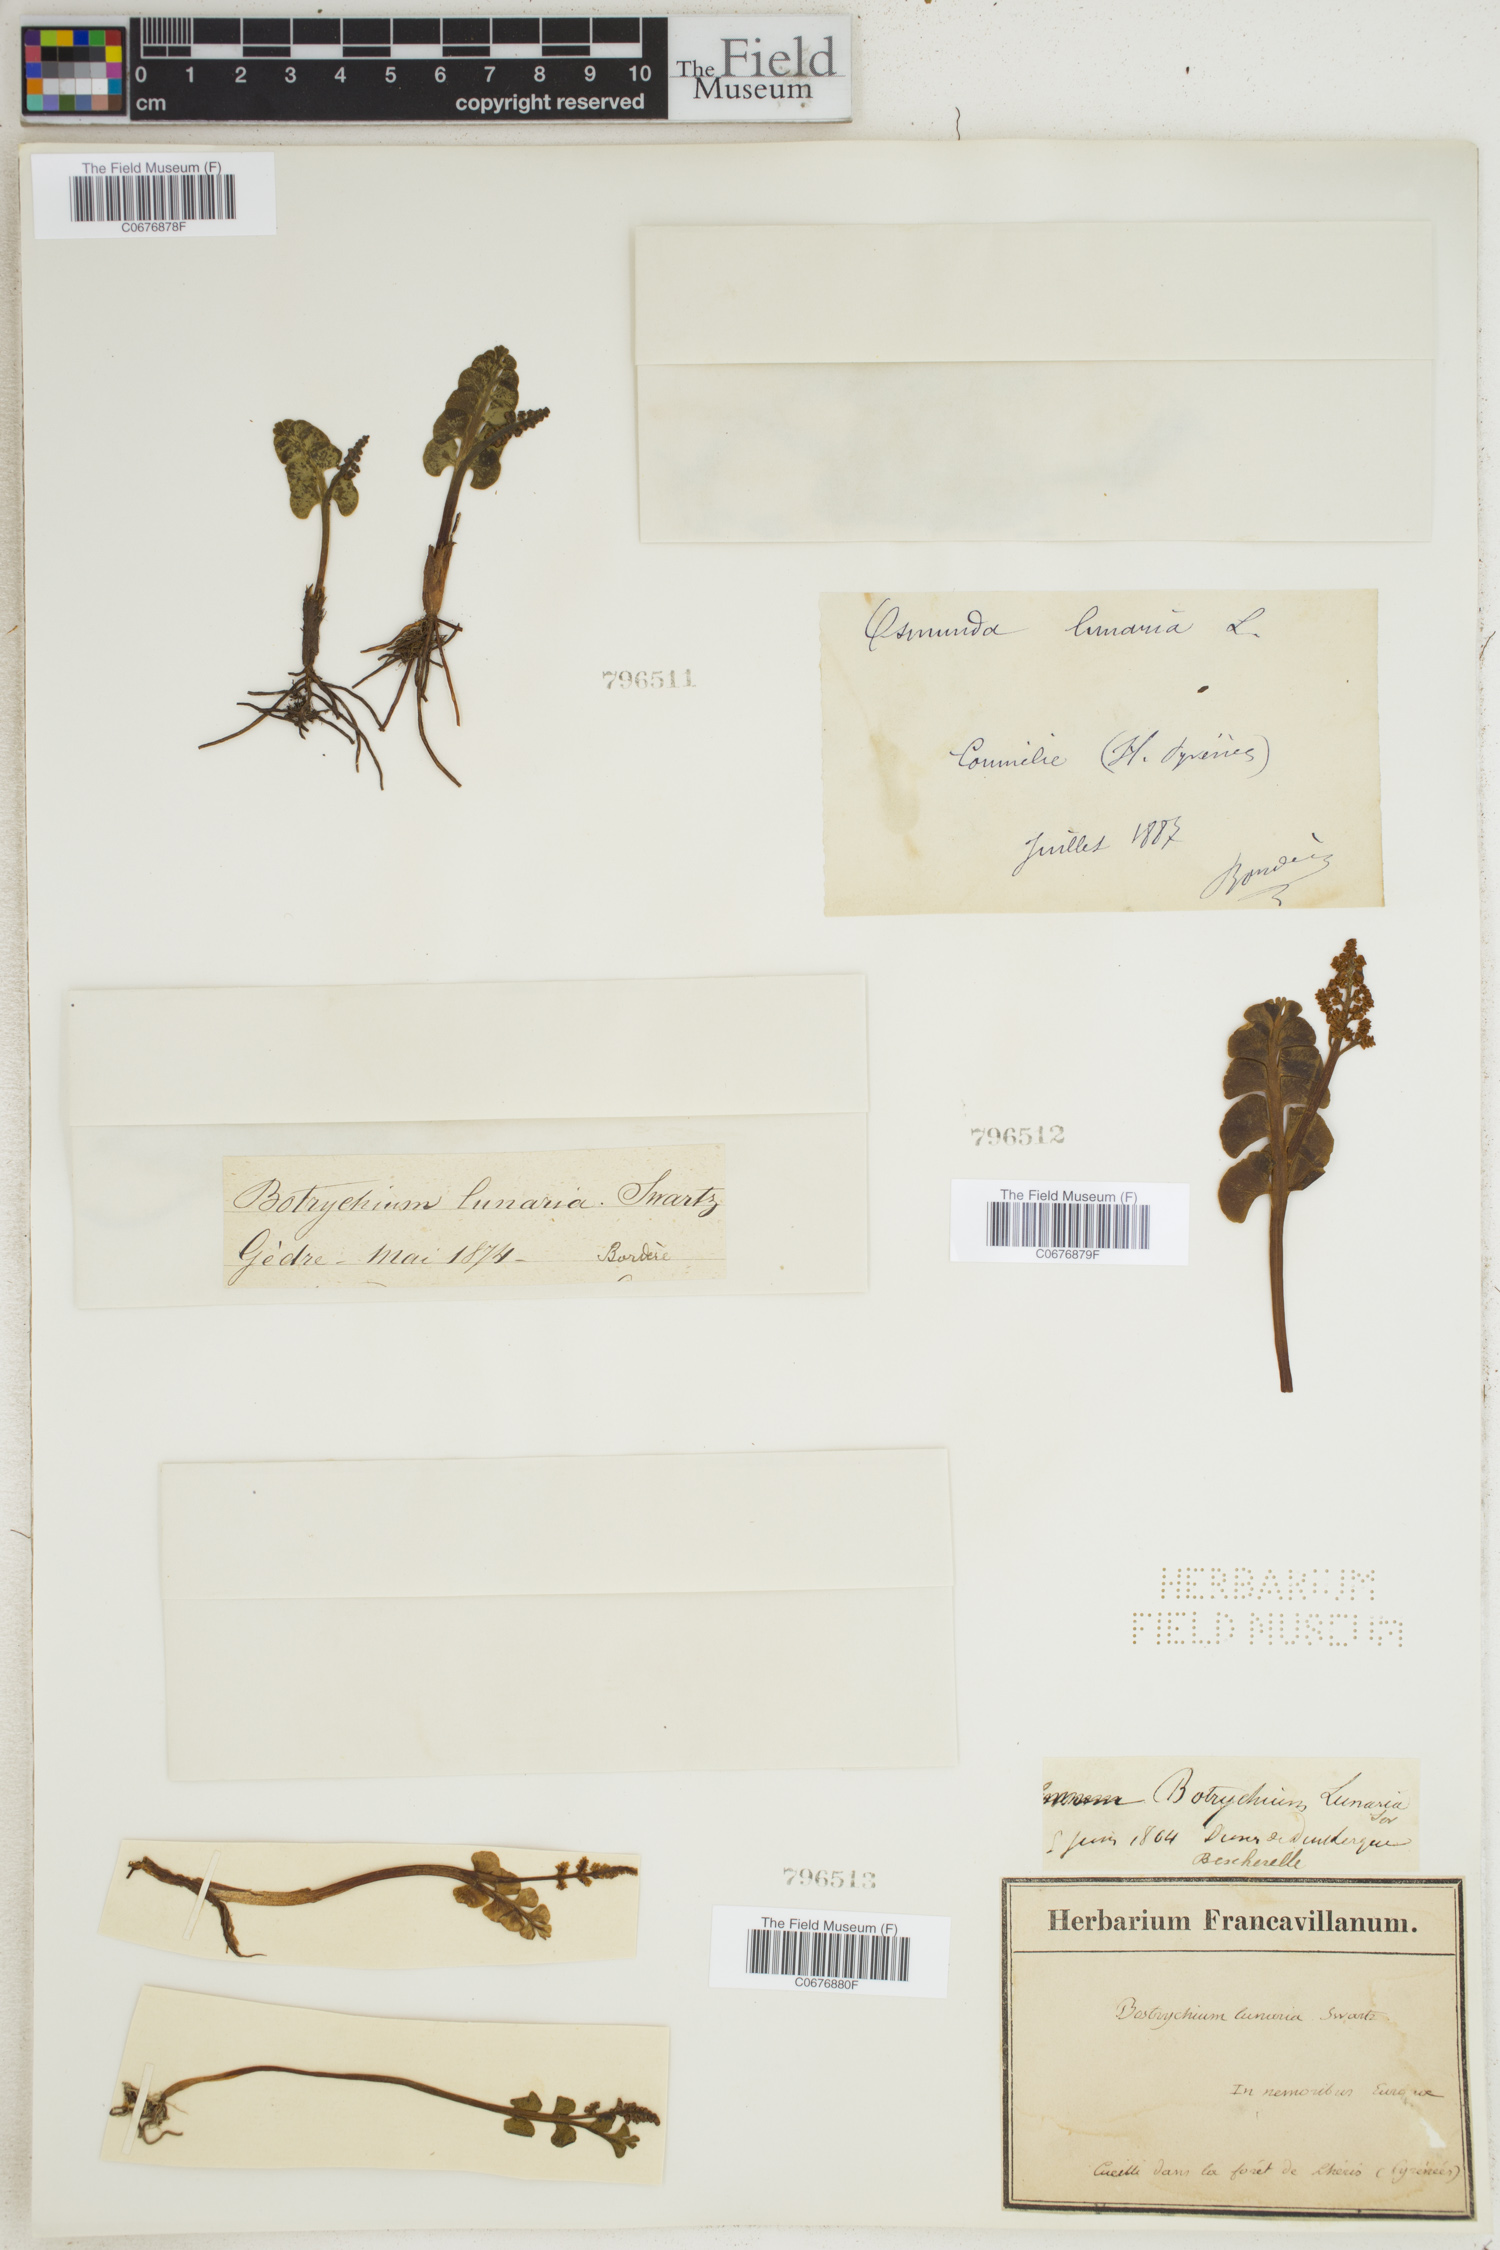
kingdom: Plantae
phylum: Tracheophyta
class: Polypodiopsida
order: Ophioglossales
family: Ophioglossaceae
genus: Botrychium
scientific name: Botrychium lunaria
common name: Moonwort
